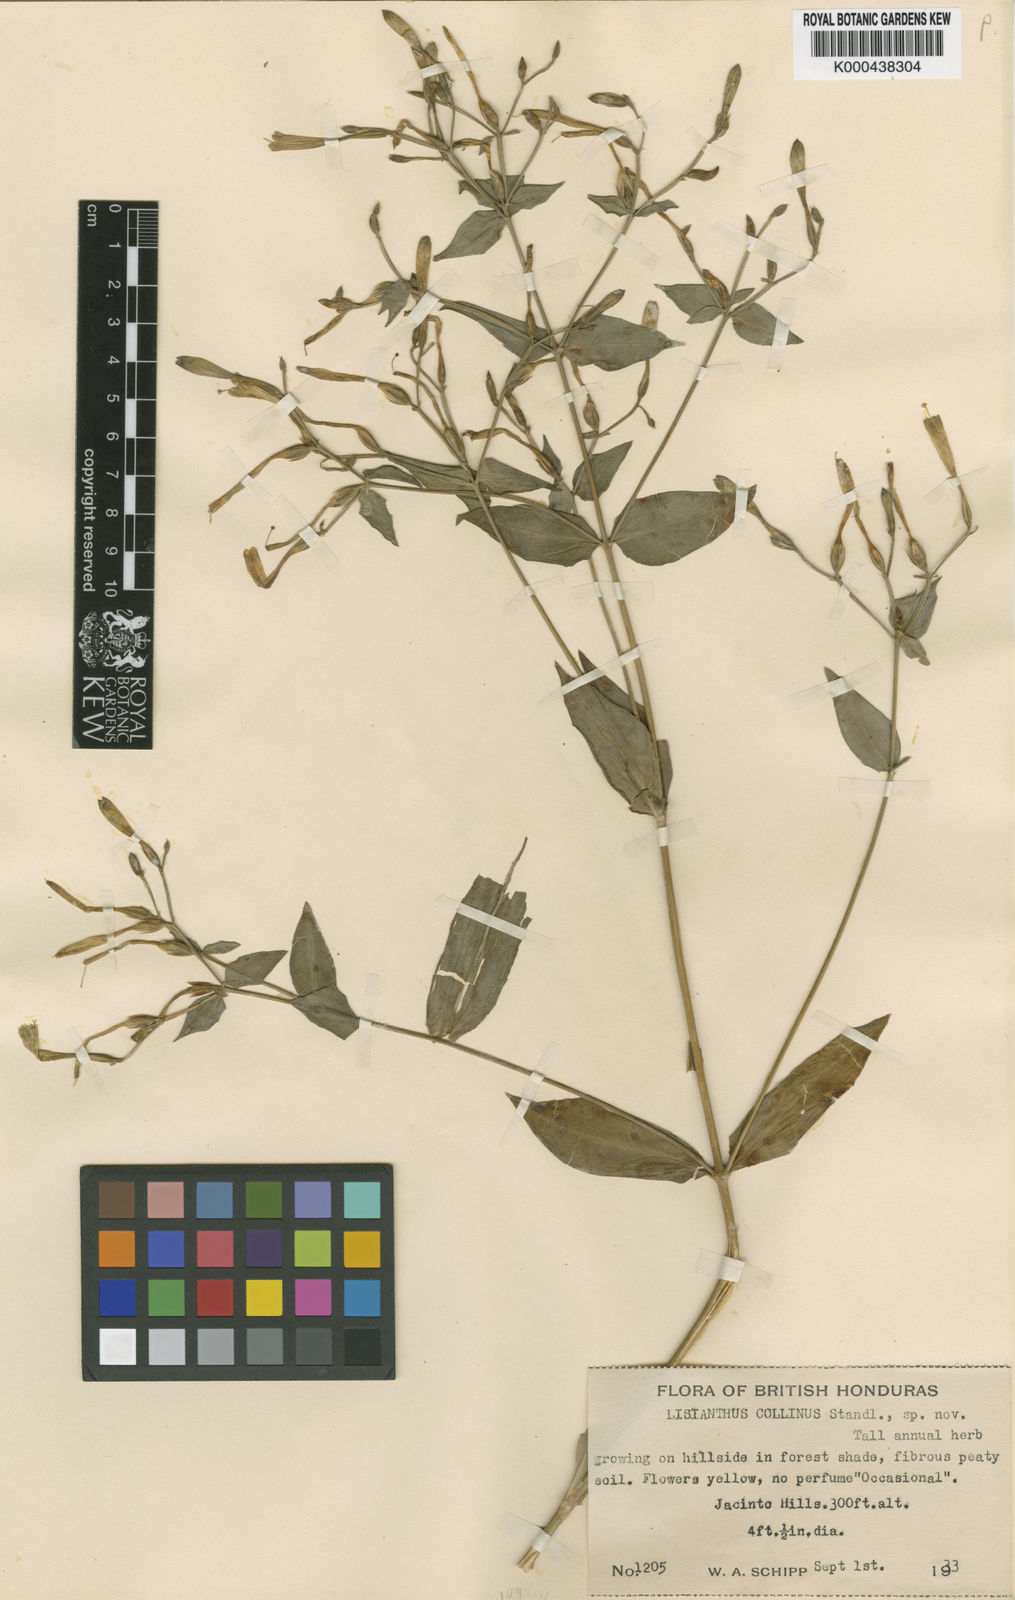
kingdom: Plantae
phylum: Tracheophyta
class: Magnoliopsida
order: Gentianales
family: Gentianaceae
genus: Lisianthus
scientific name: Lisianthus brevidentatus
